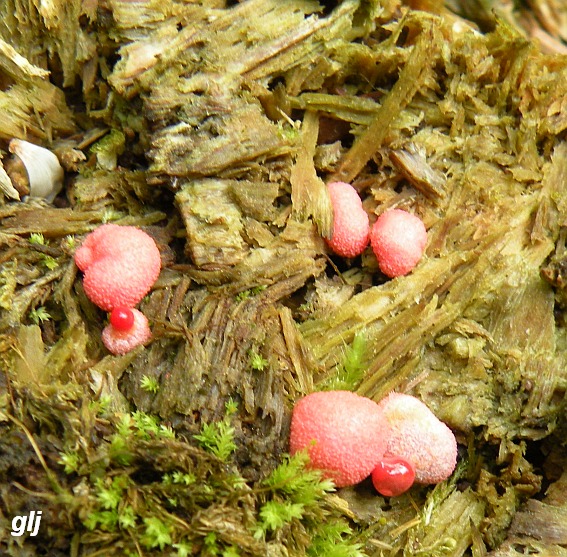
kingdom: Protozoa
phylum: Mycetozoa
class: Myxomycetes
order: Cribrariales
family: Tubiferaceae
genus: Lycogala
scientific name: Lycogala epidendrum
